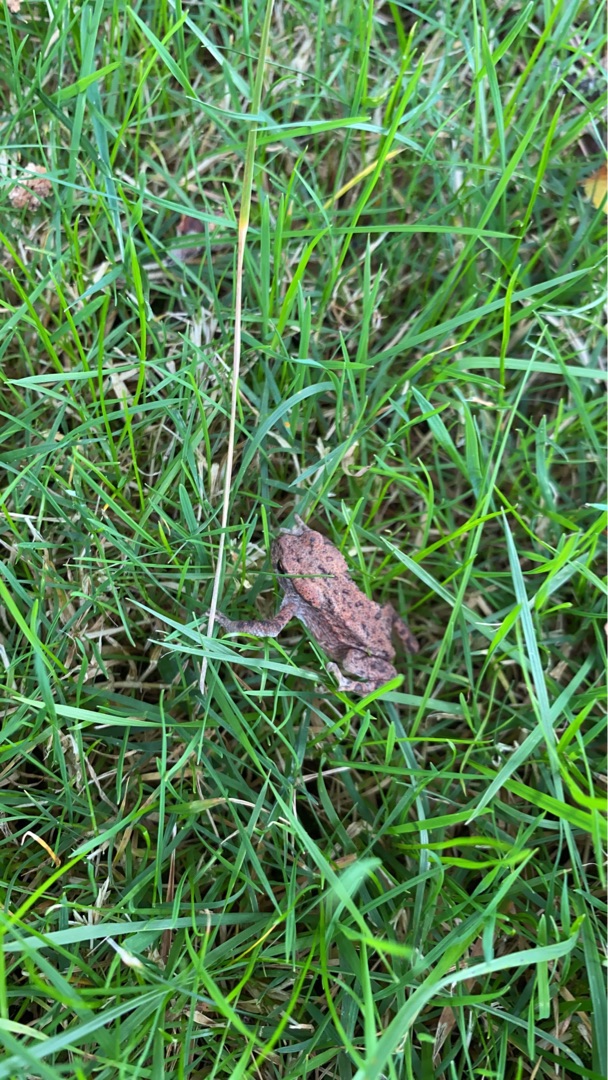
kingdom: Animalia
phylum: Chordata
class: Amphibia
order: Anura
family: Bufonidae
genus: Bufo
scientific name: Bufo bufo
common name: Skrubtudse
